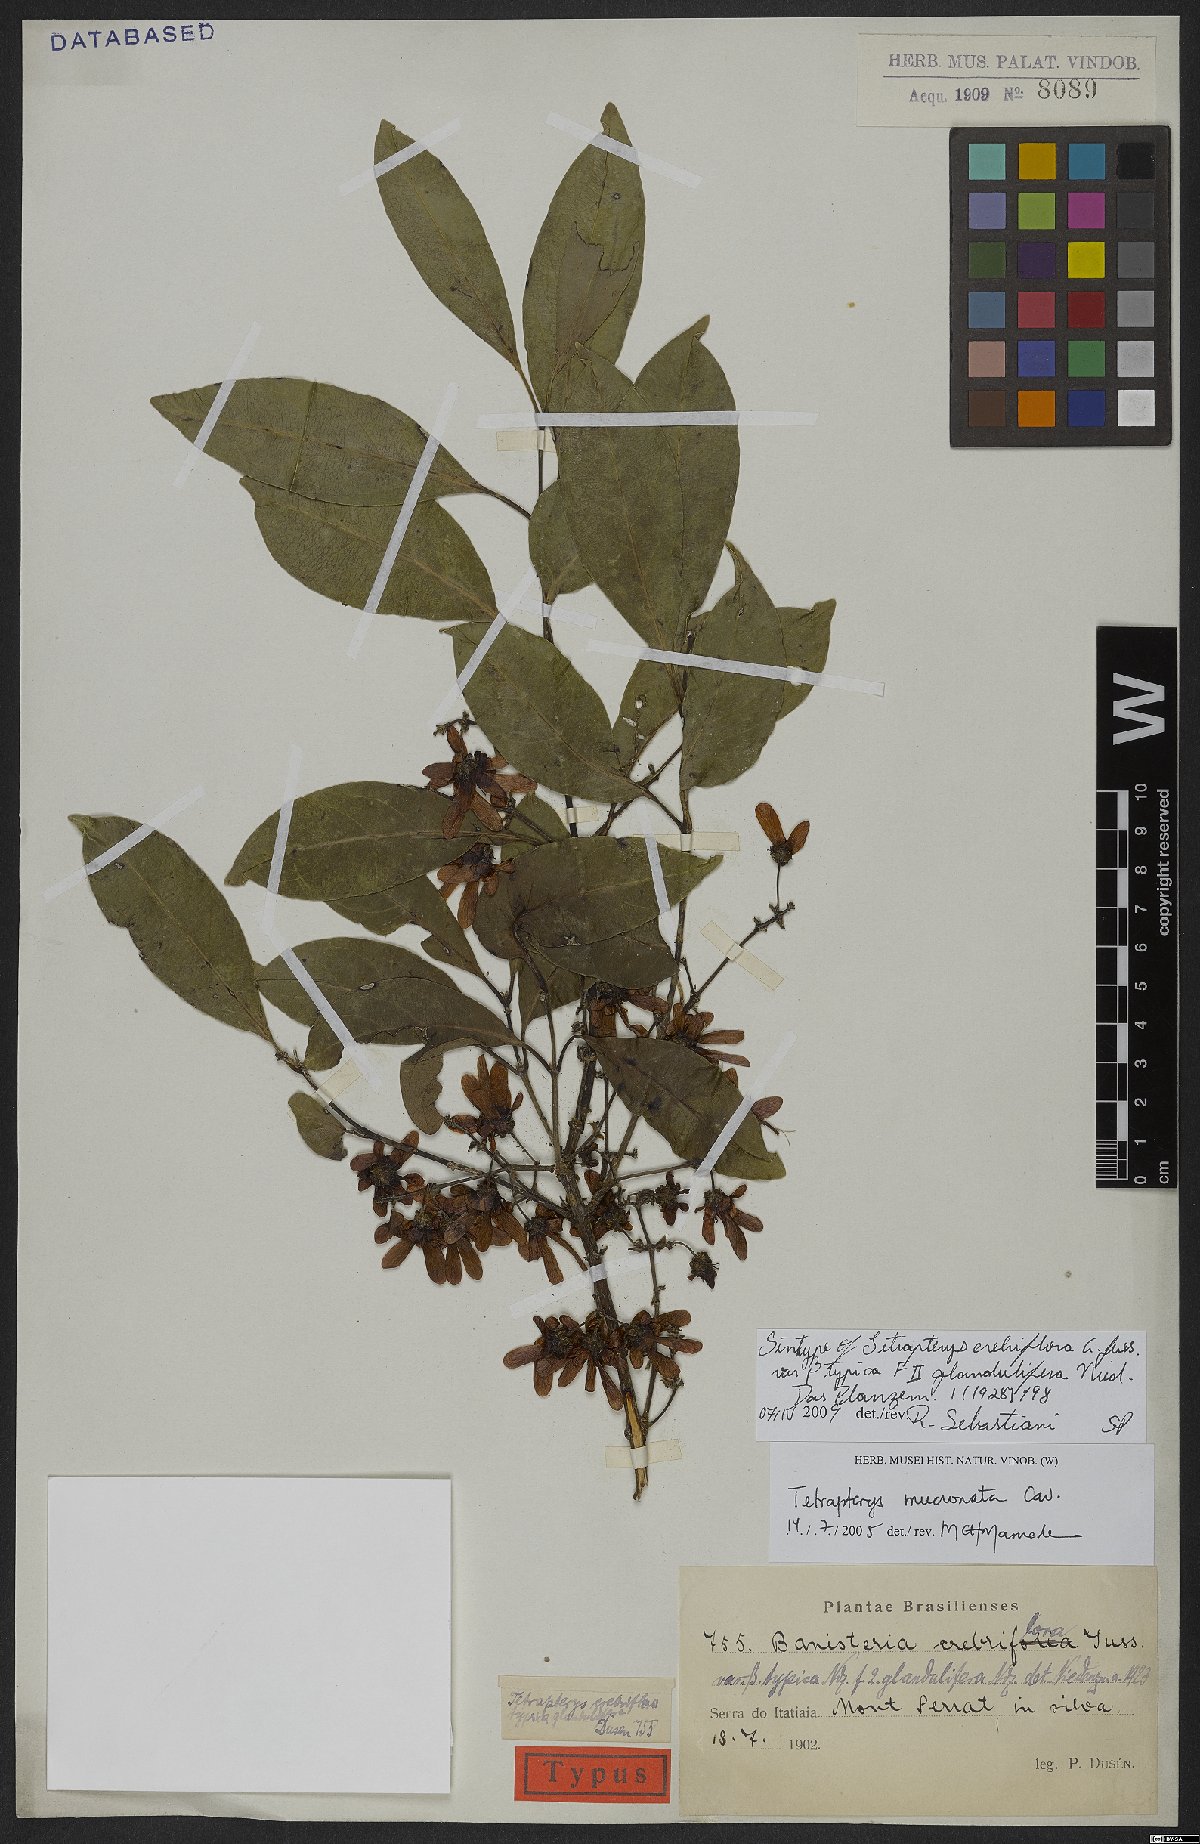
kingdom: Plantae
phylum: Tracheophyta
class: Magnoliopsida
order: Malpighiales
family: Malpighiaceae
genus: Tetrapterys
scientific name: Tetrapterys mucronata
